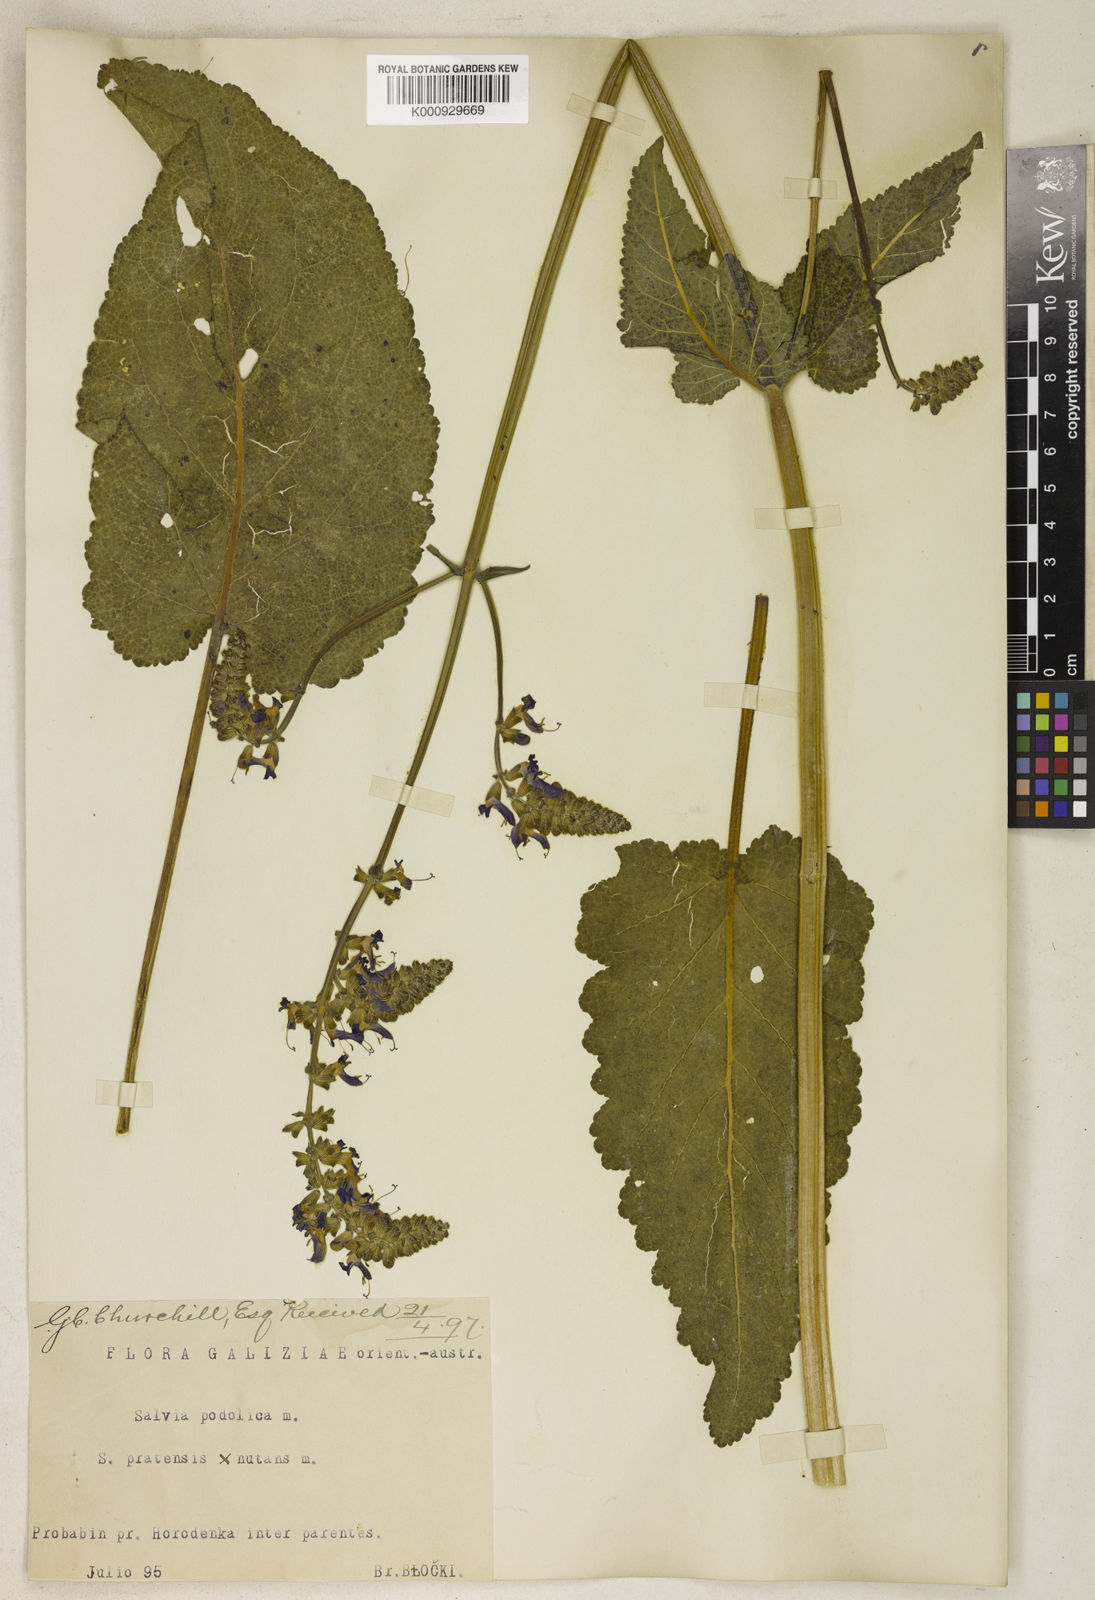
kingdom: Plantae
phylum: Tracheophyta
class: Magnoliopsida
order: Lamiales
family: Lamiaceae
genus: Salvia
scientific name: Salvia nutans
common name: Nodding sage
